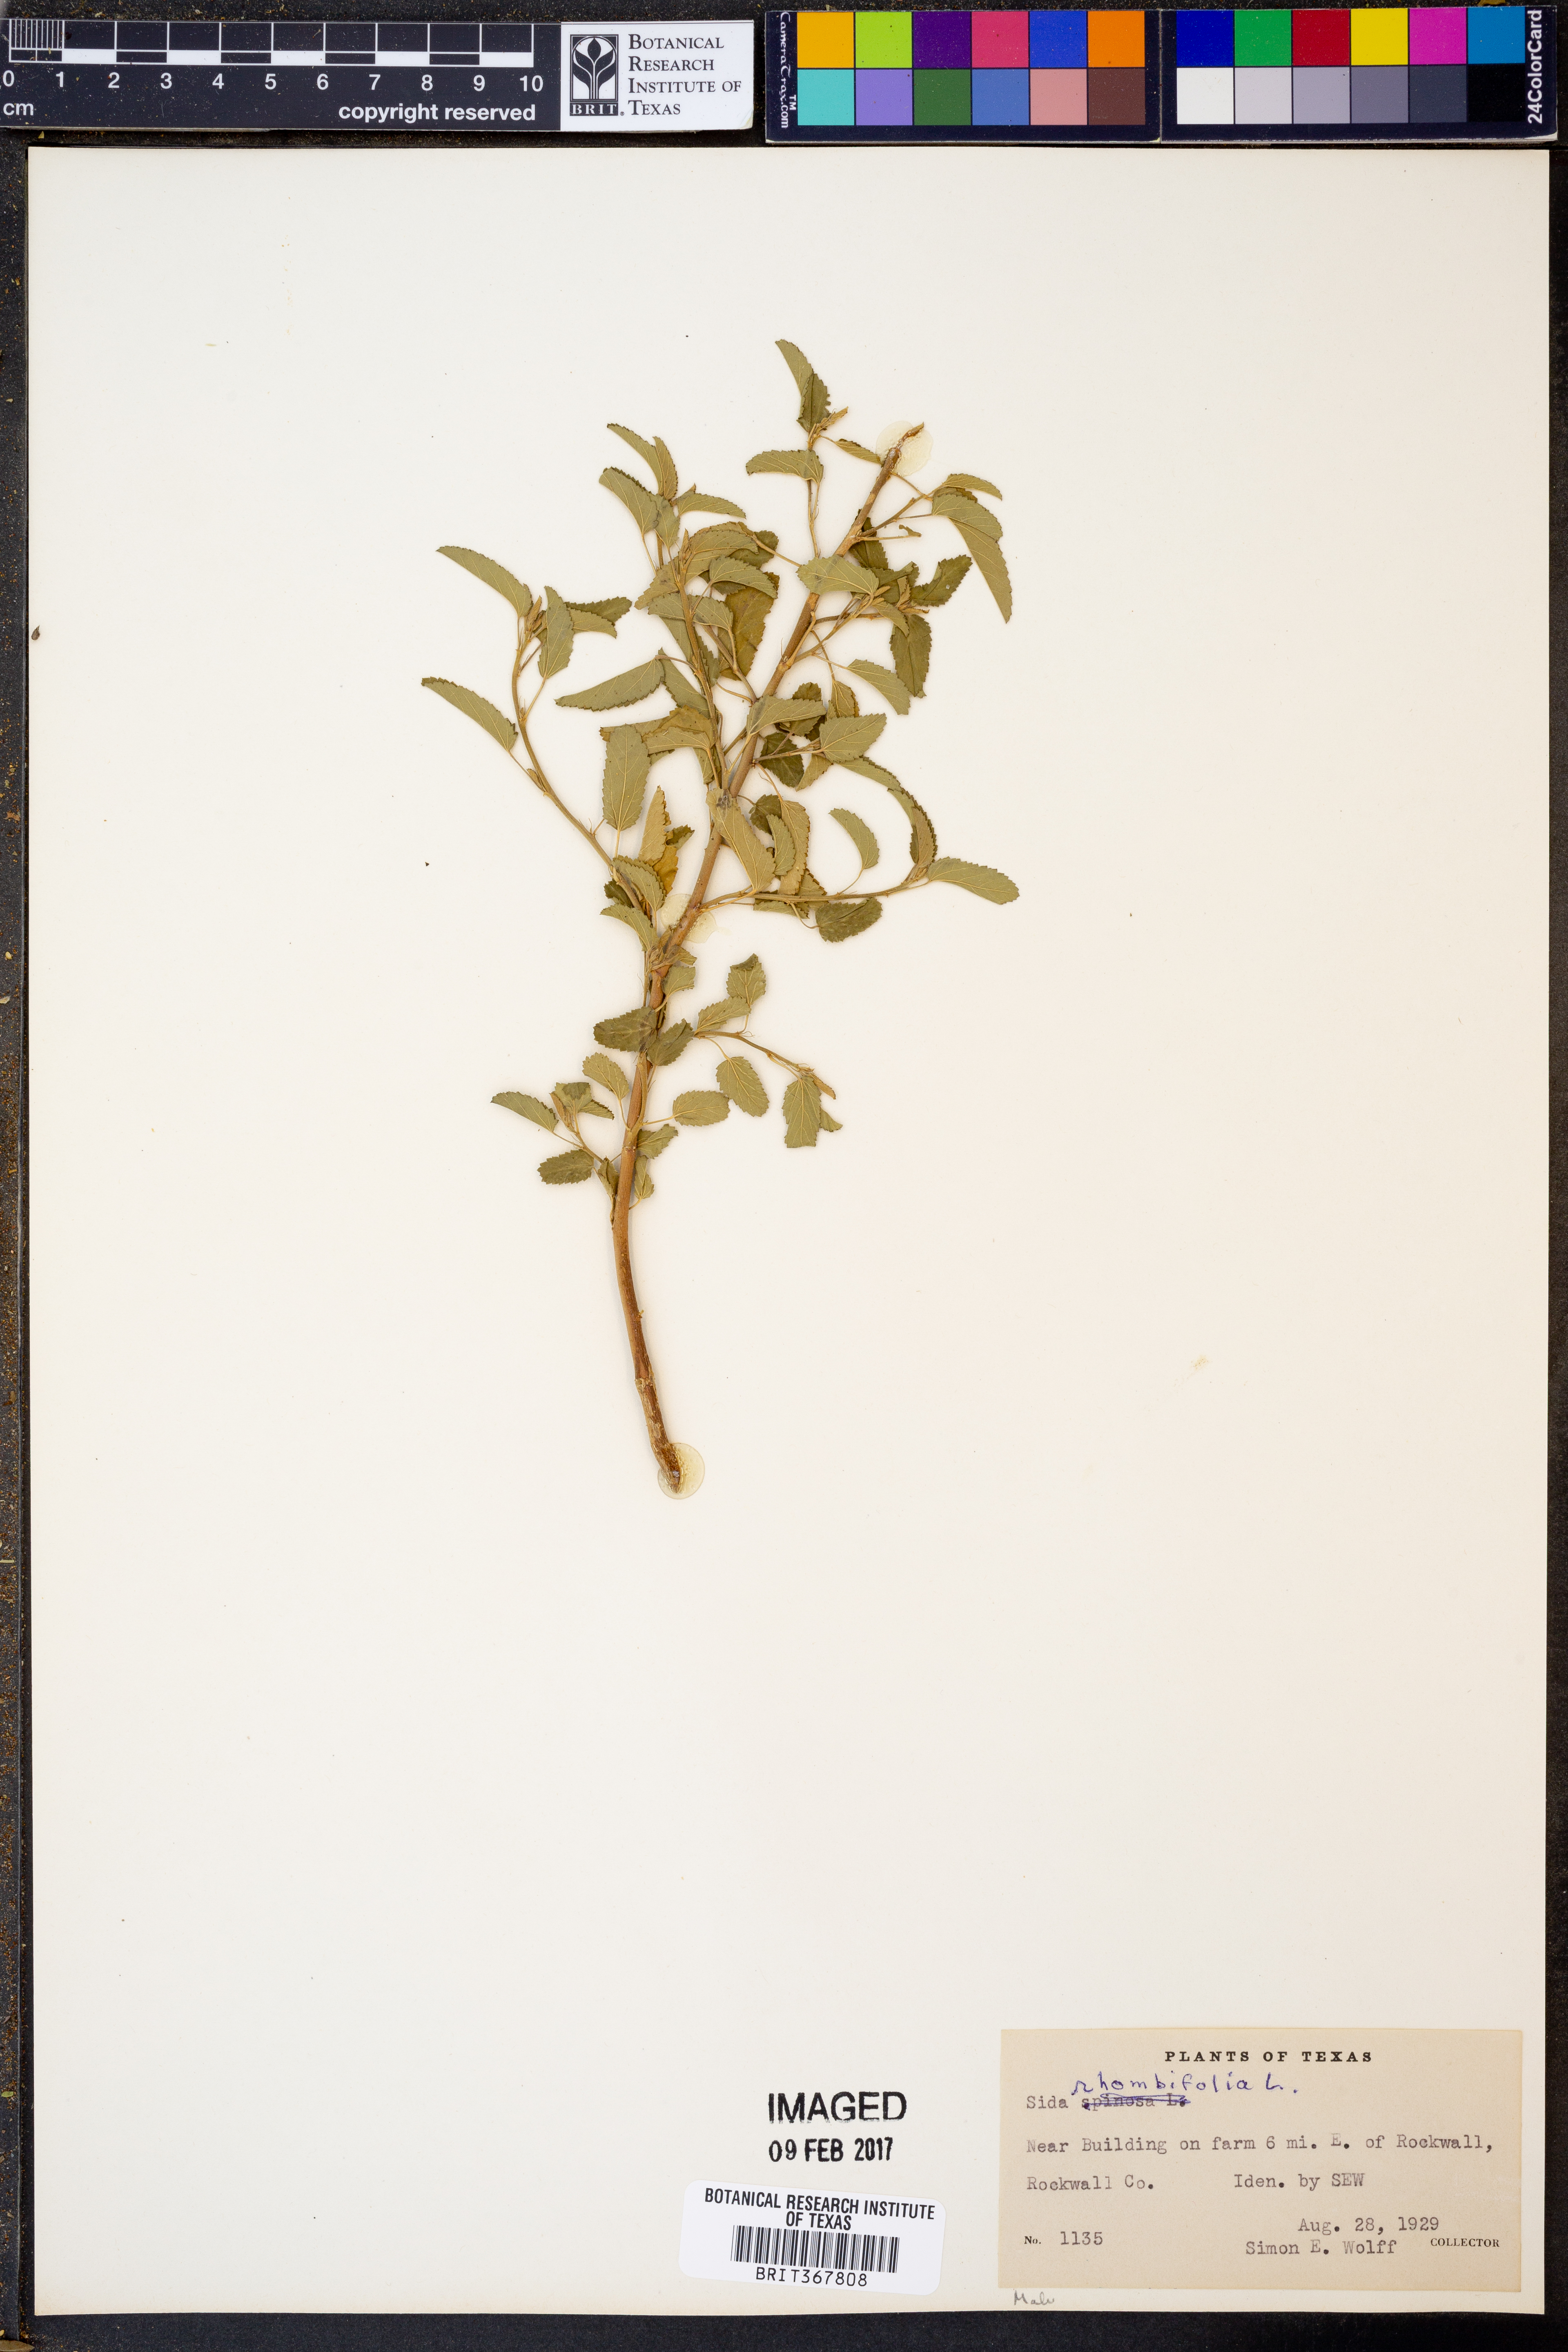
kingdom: Plantae
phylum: Tracheophyta
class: Magnoliopsida
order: Malvales
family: Malvaceae
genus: Sida
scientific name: Sida rhombifolia
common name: Queensland-hemp
